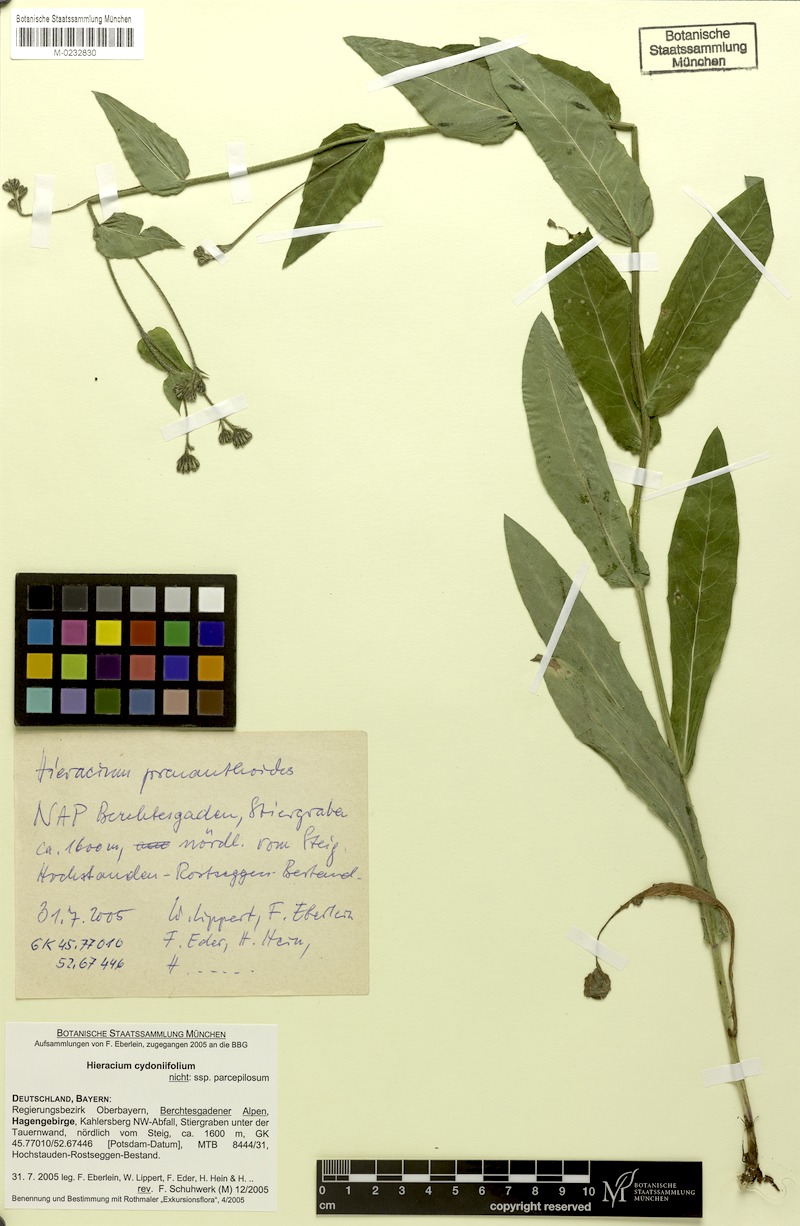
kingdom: Plantae
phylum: Tracheophyta
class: Magnoliopsida
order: Asterales
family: Asteraceae
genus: Hieracium
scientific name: Hieracium cydoniifolium
